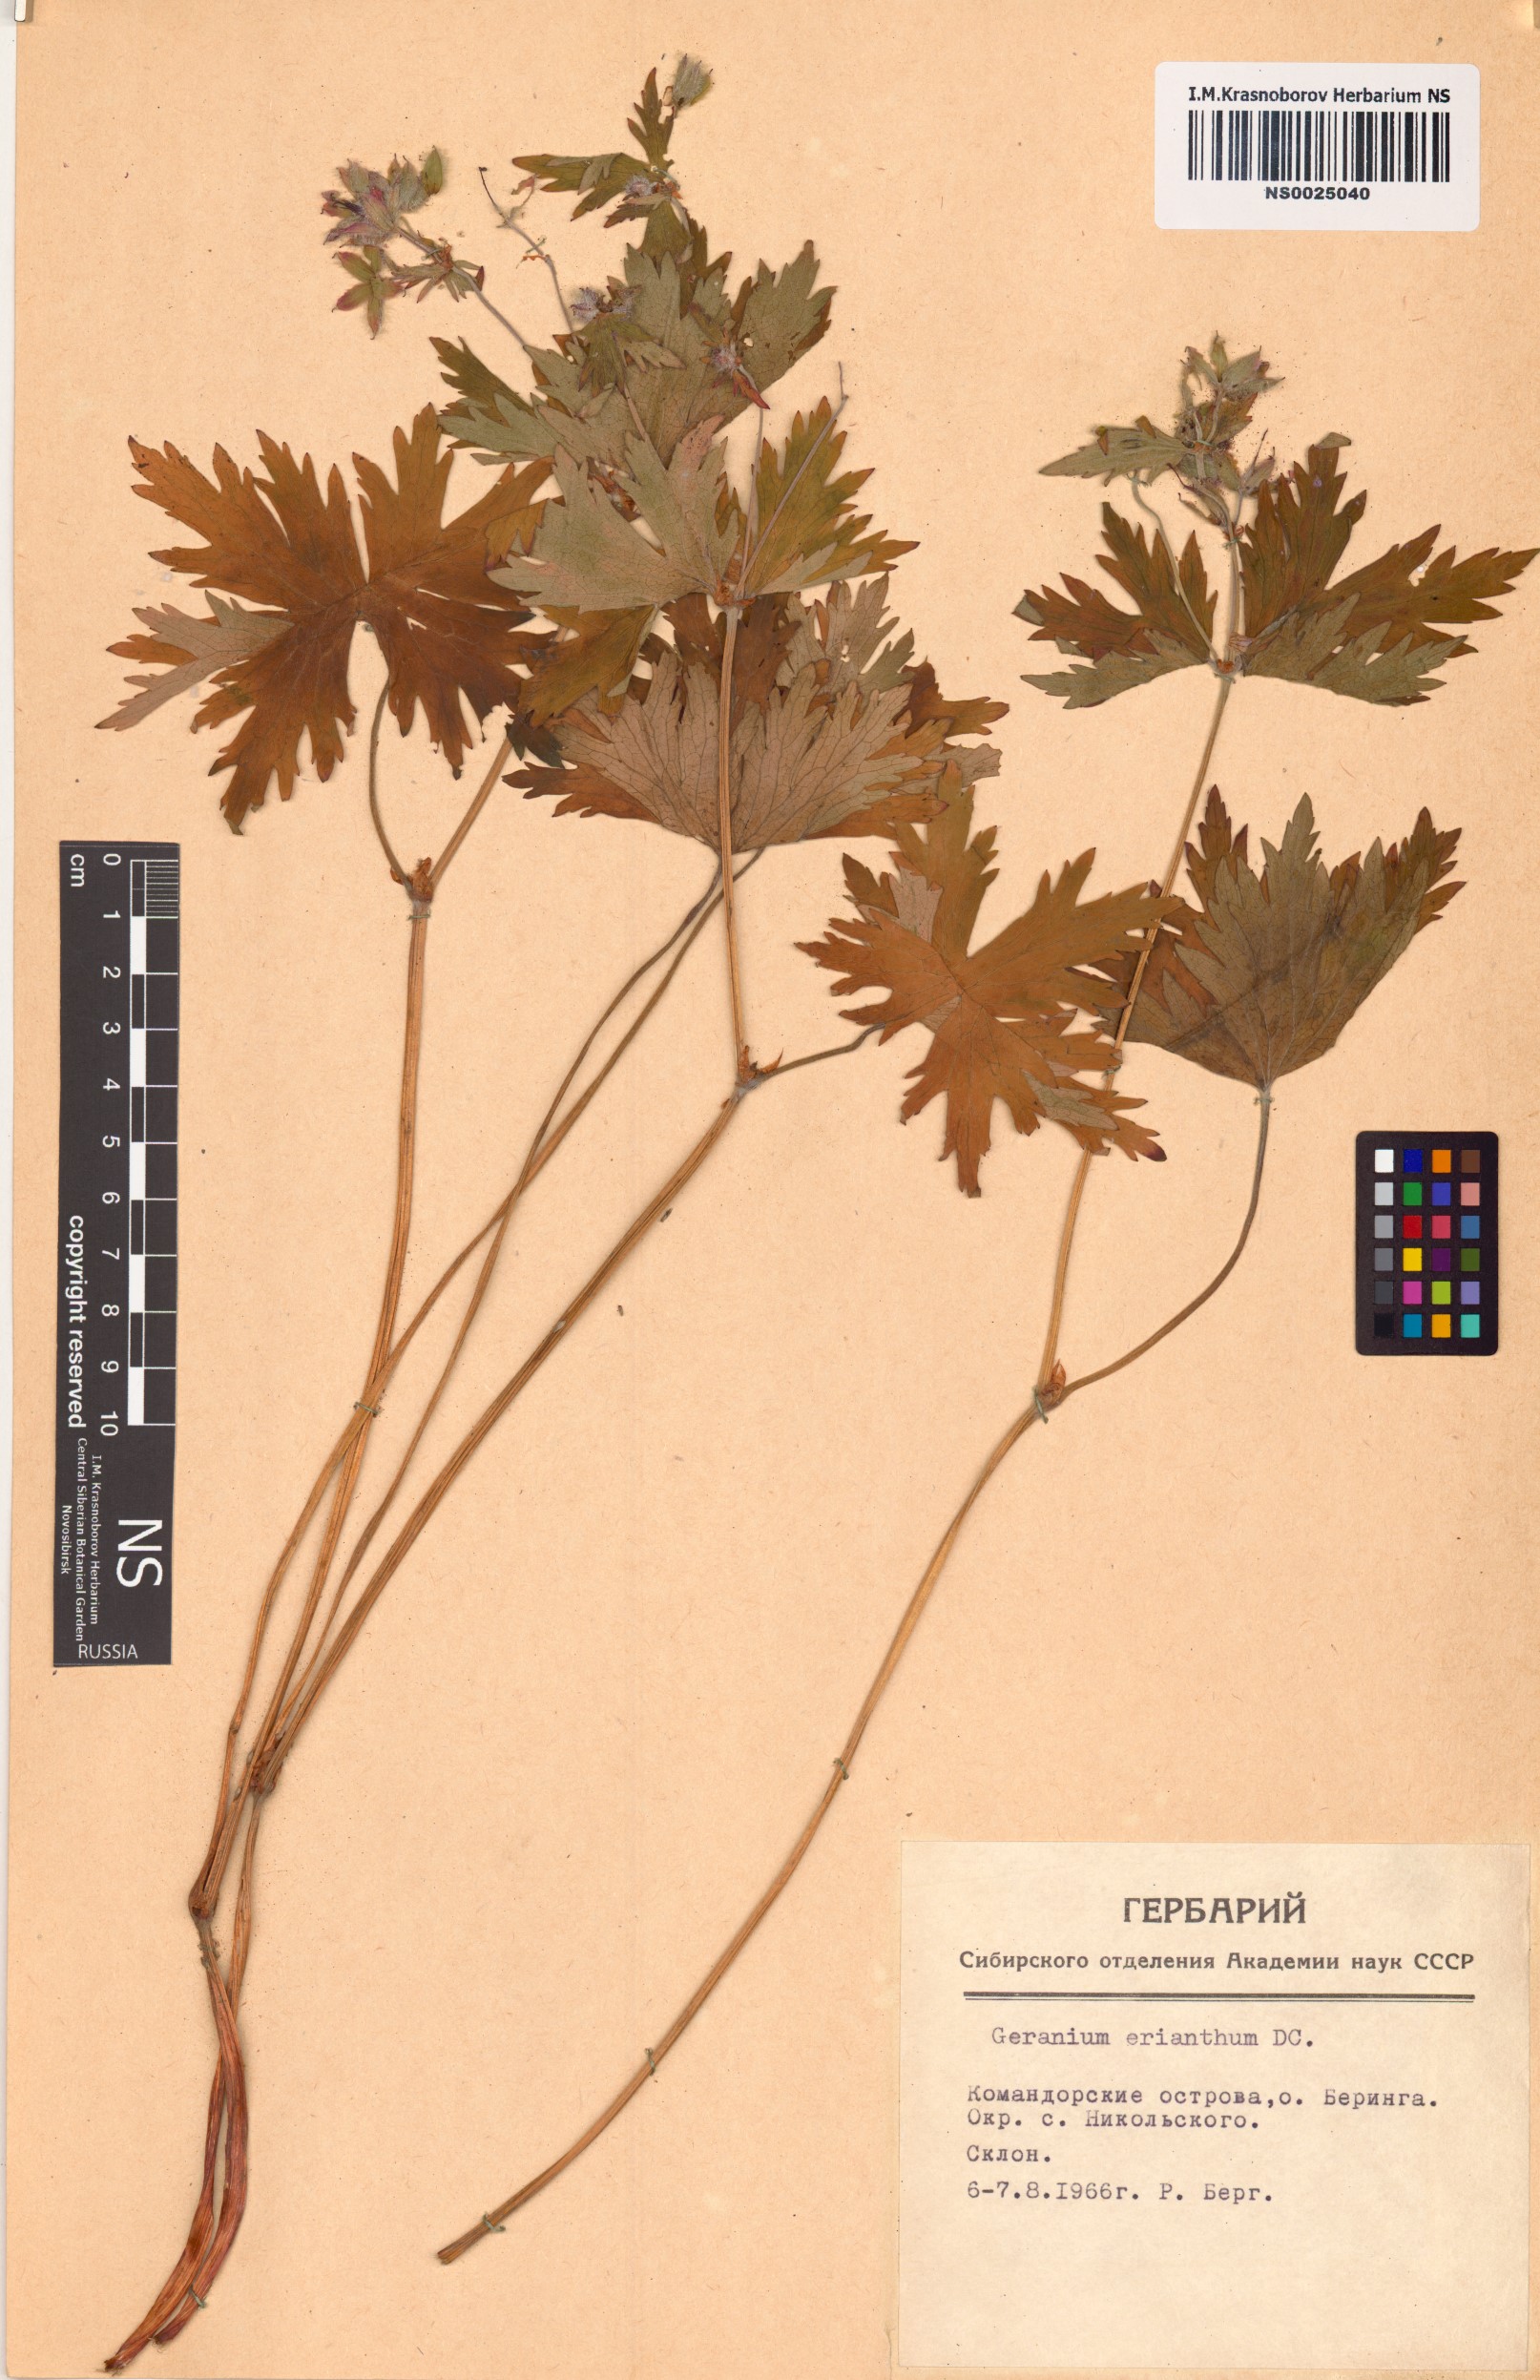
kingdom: Plantae
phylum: Tracheophyta
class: Magnoliopsida
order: Geraniales
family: Geraniaceae
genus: Geranium
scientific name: Geranium erianthum
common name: Northern crane's-bill
